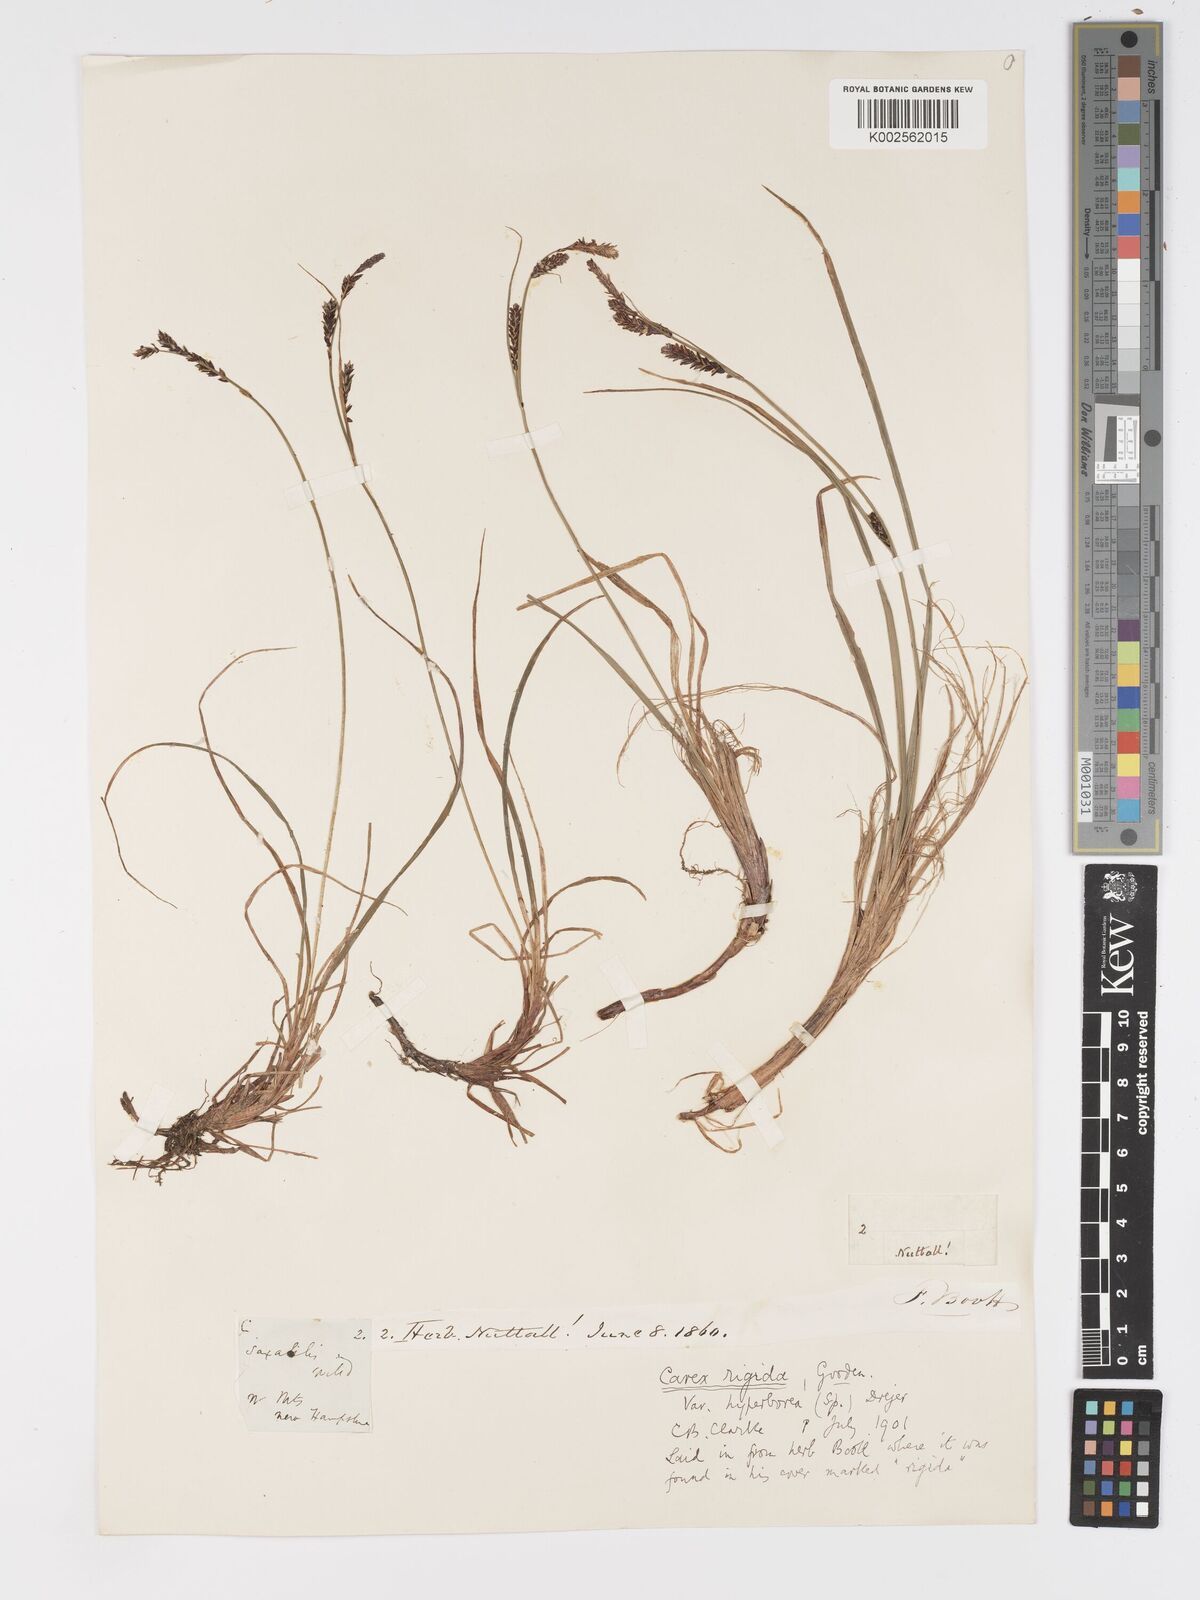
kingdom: Plantae
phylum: Tracheophyta
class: Liliopsida
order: Poales
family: Cyperaceae
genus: Carex
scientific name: Carex bigelowii
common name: Stiff sedge
